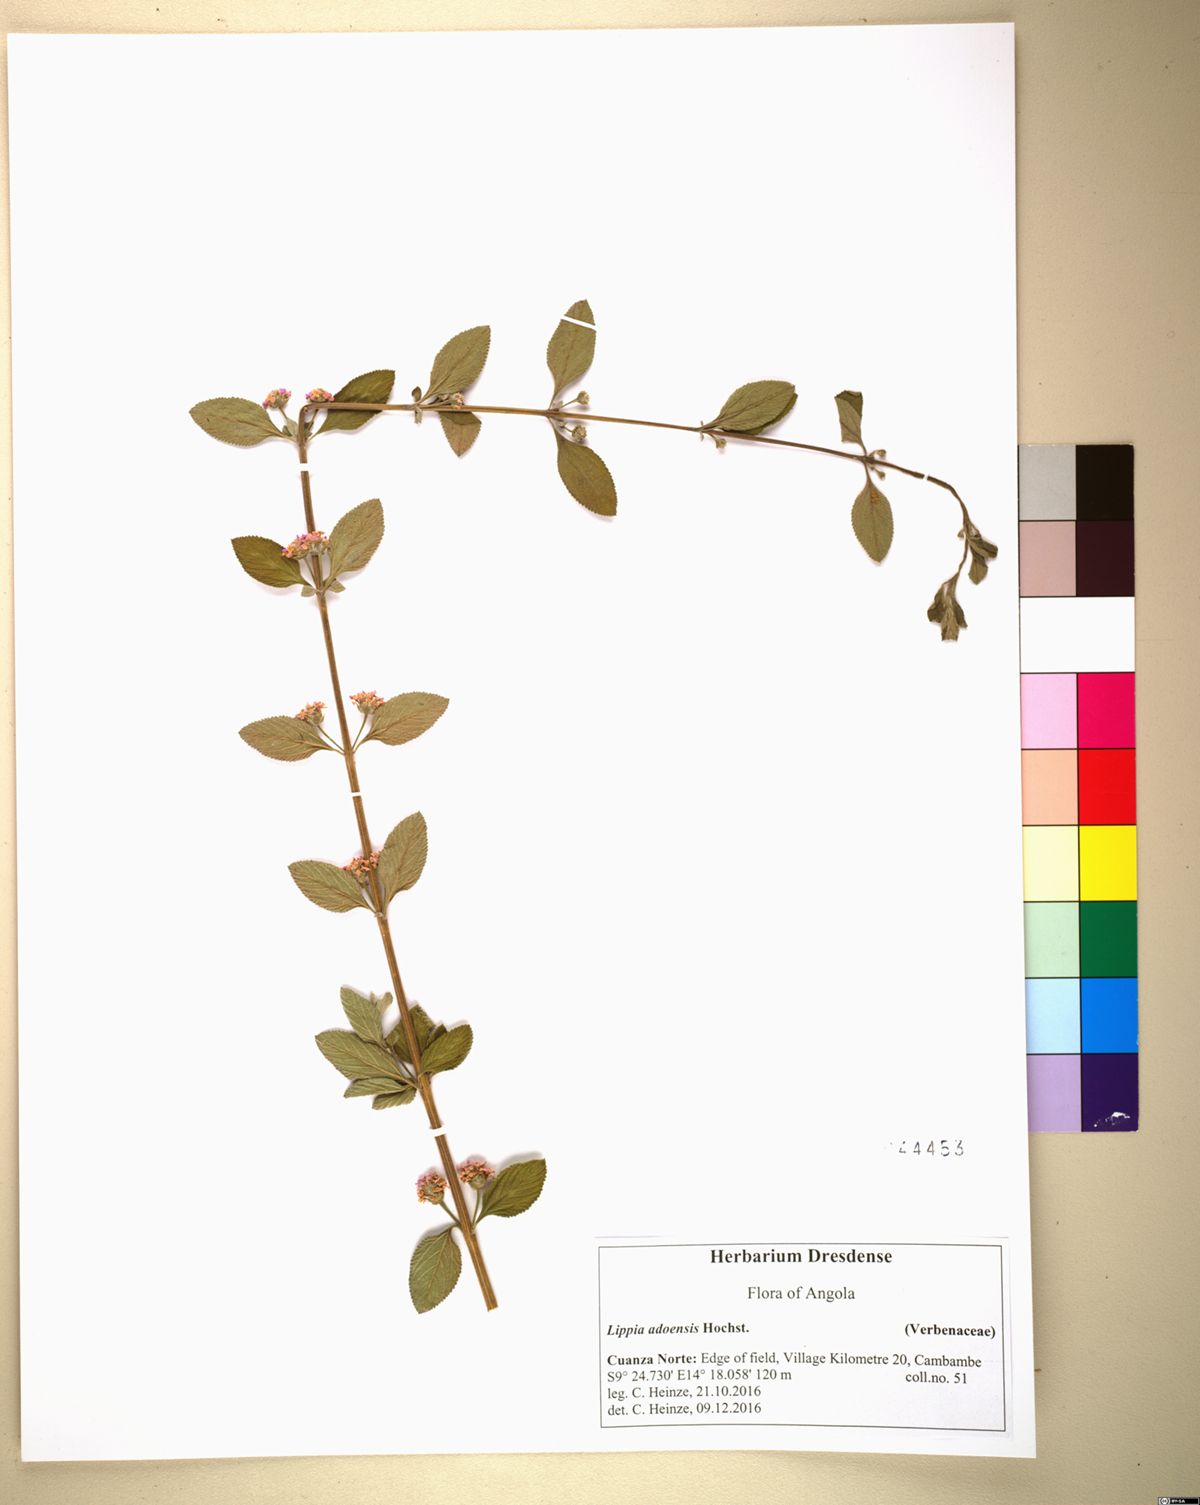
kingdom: Plantae
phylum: Tracheophyta
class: Magnoliopsida
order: Lamiales
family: Verbenaceae
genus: Lantana
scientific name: Lantana angolensis
